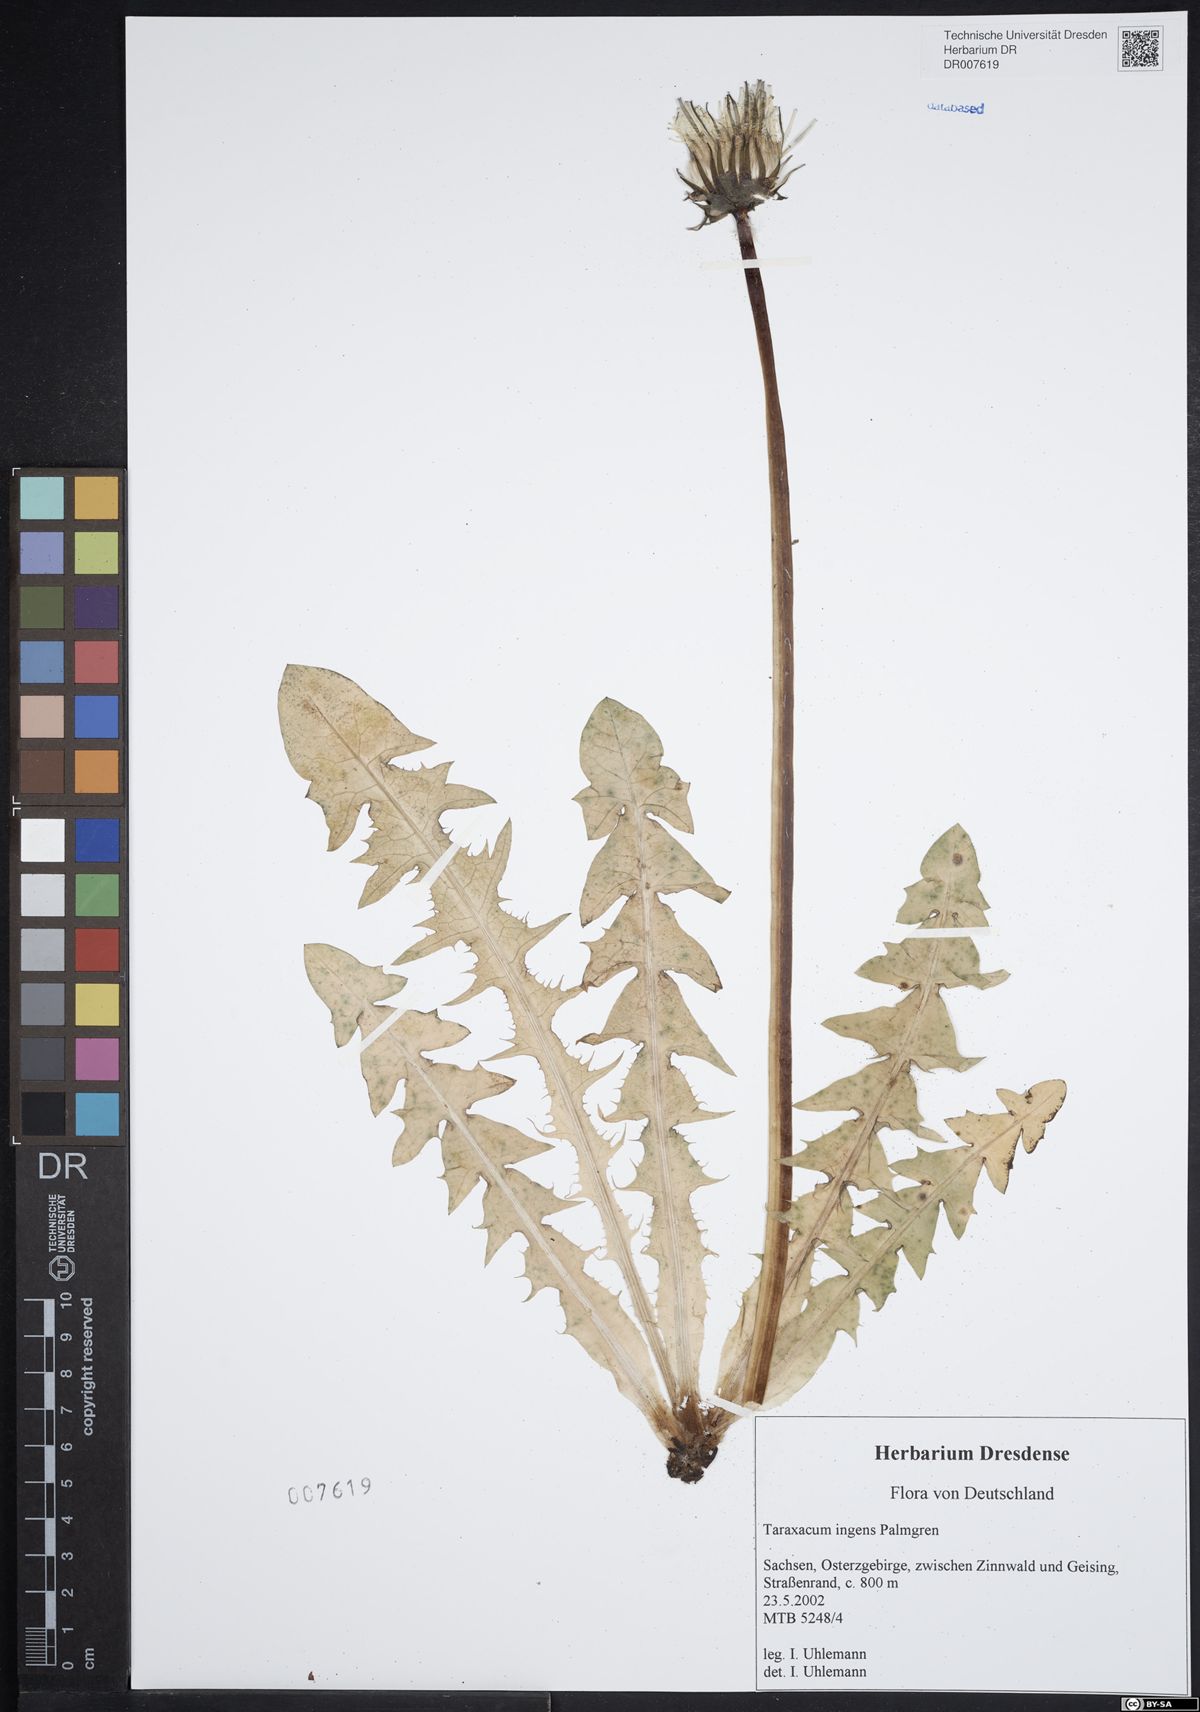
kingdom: Plantae
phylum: Tracheophyta
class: Magnoliopsida
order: Asterales
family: Asteraceae
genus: Taraxacum
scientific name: Taraxacum ingens
